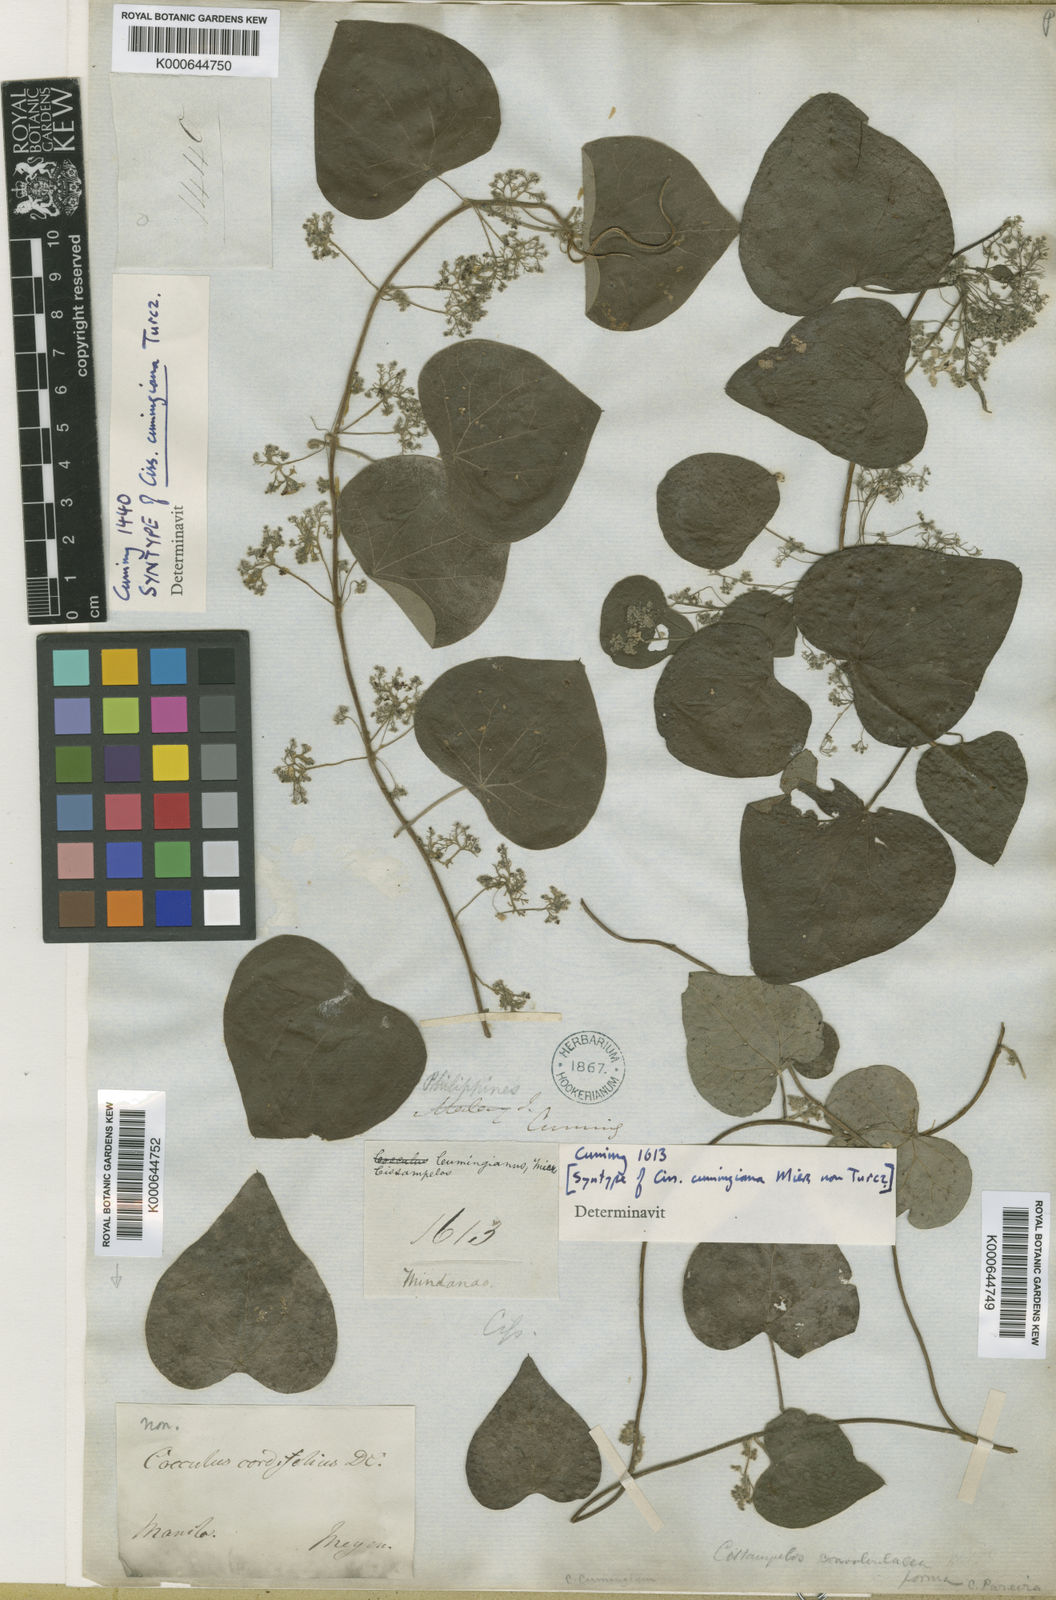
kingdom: Plantae
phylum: Tracheophyta
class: Magnoliopsida
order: Ranunculales
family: Menispermaceae
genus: Cissampelos
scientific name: Cissampelos pareira
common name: Velvetleaf
